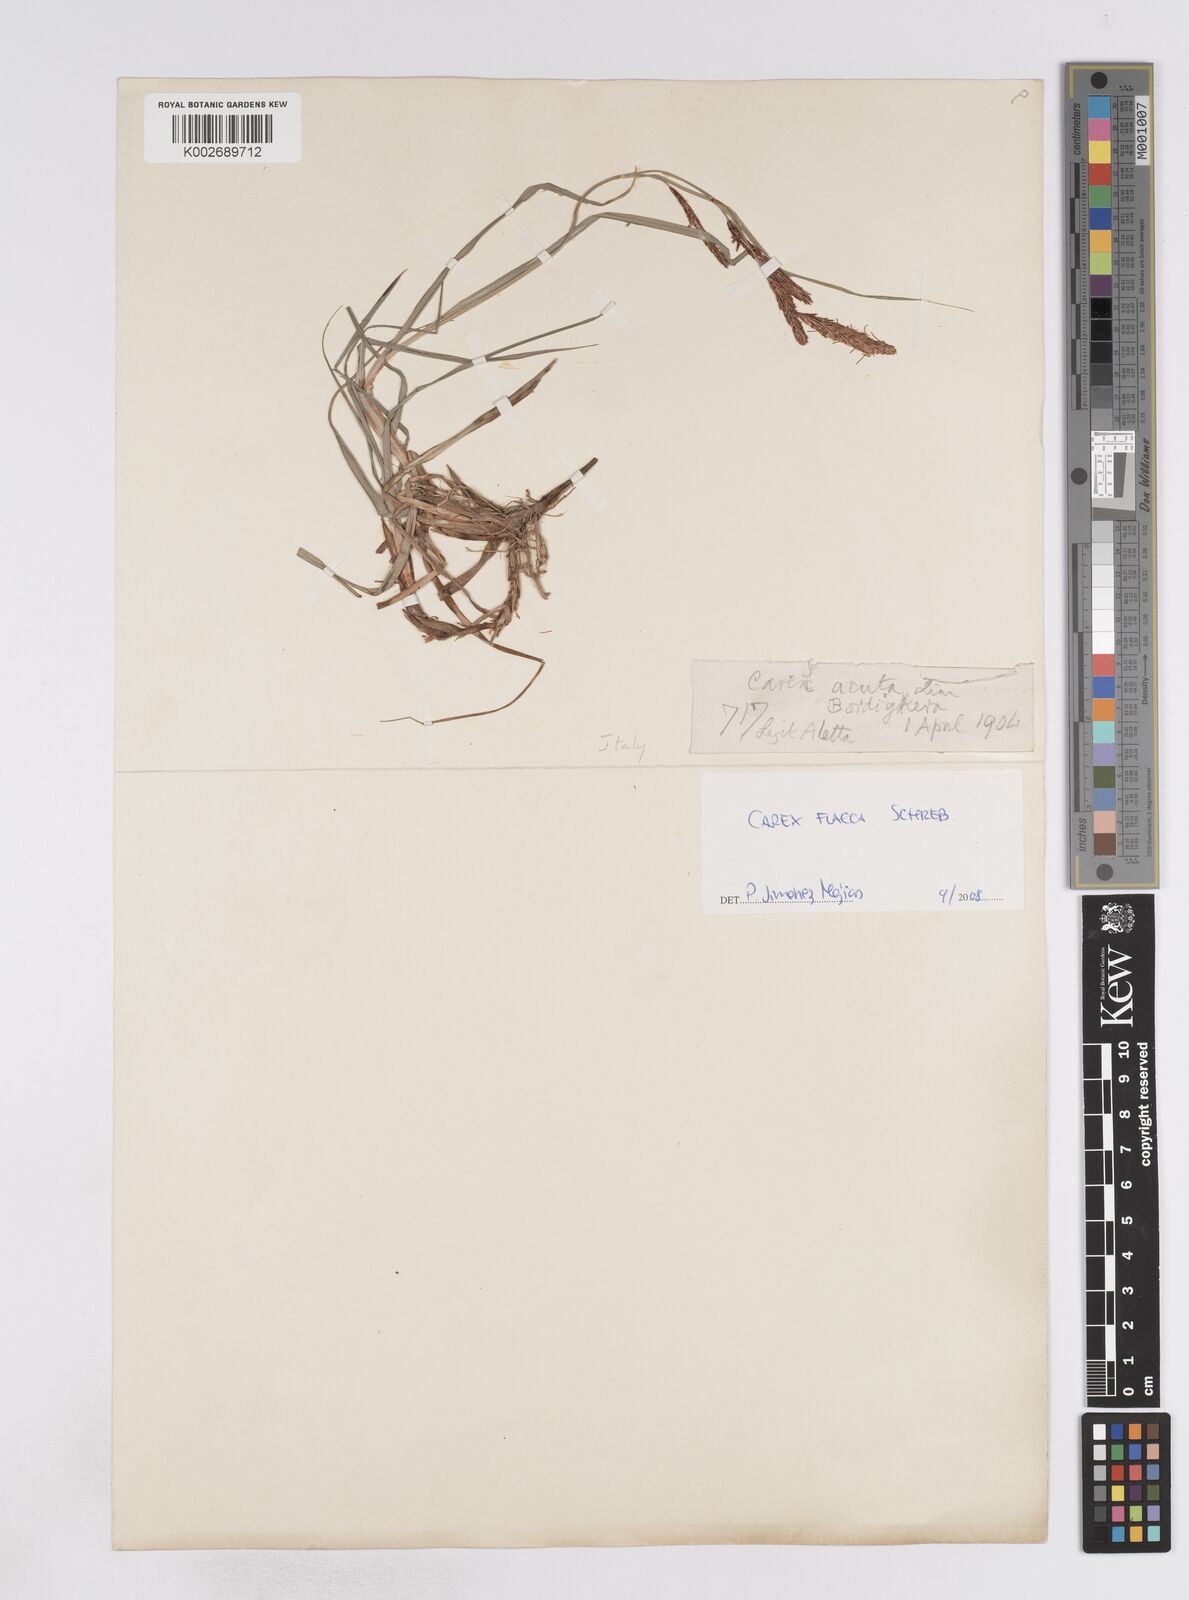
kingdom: Plantae
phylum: Tracheophyta
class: Liliopsida
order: Poales
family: Cyperaceae
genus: Carex
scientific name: Carex flacca
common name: Glaucous sedge
